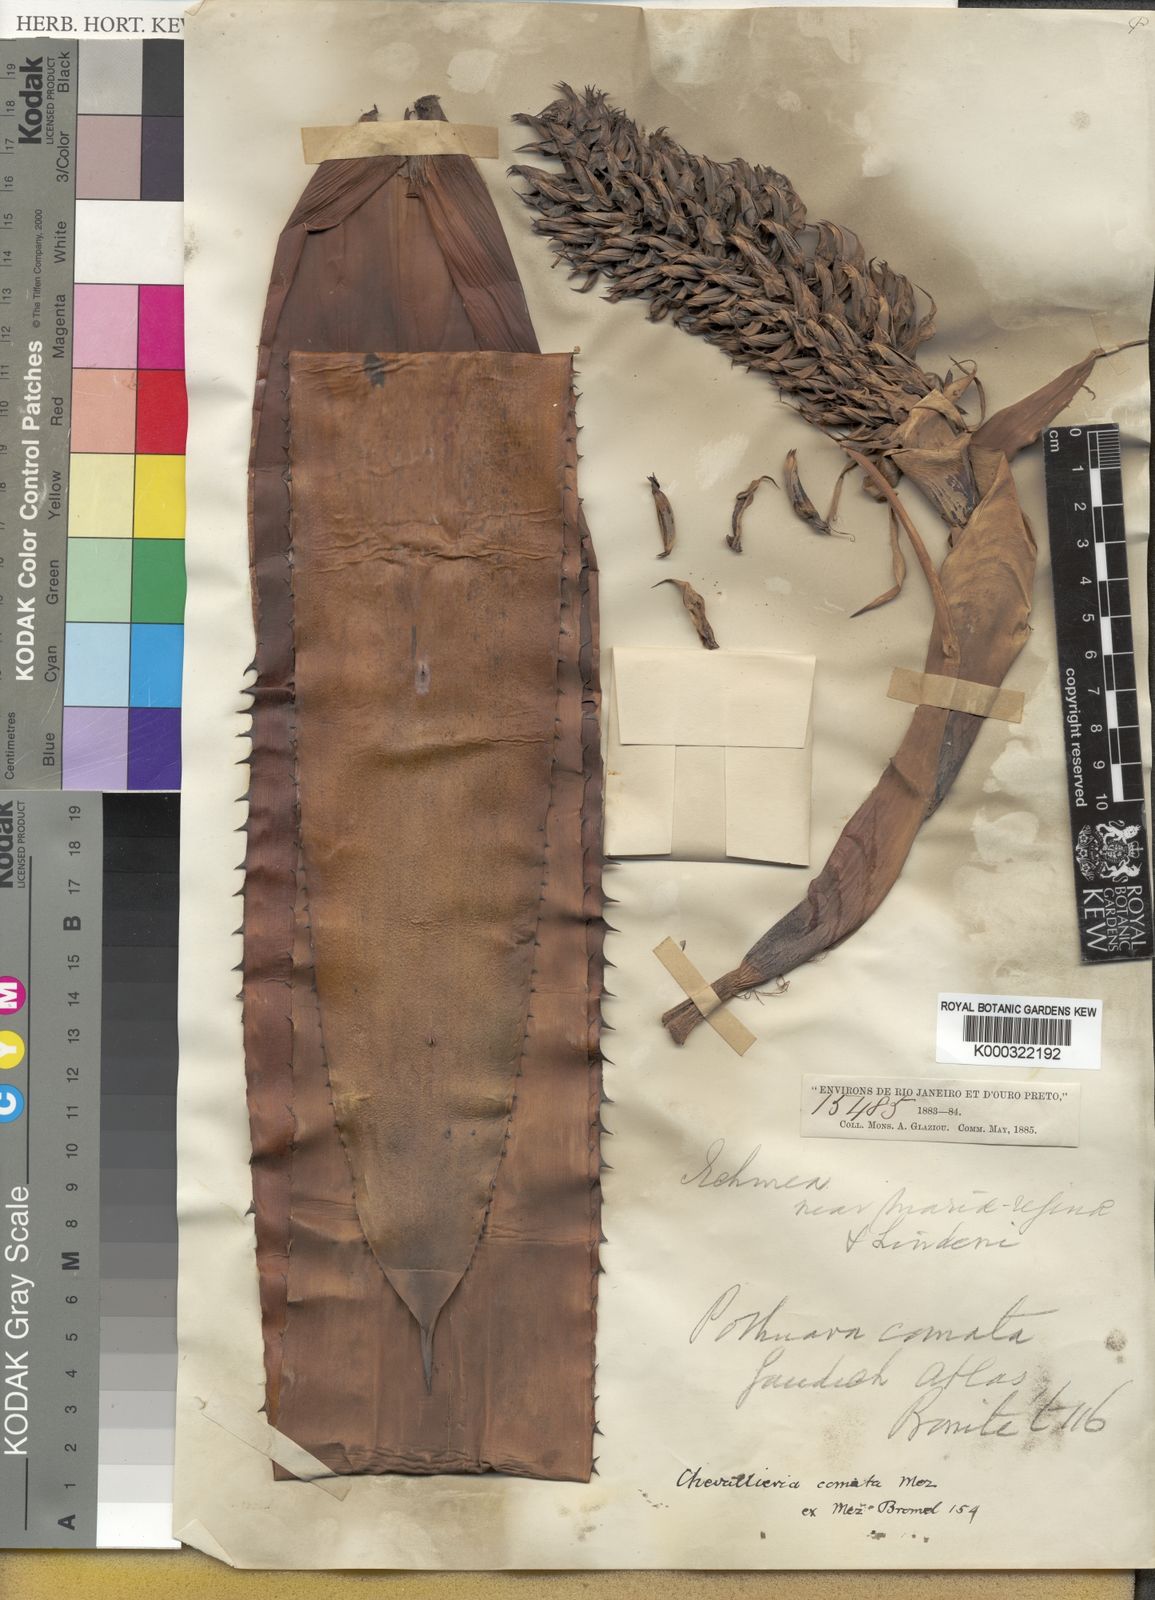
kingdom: Plantae
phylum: Tracheophyta
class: Liliopsida
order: Poales
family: Bromeliaceae
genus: Aechmea
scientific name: Aechmea cariocae
